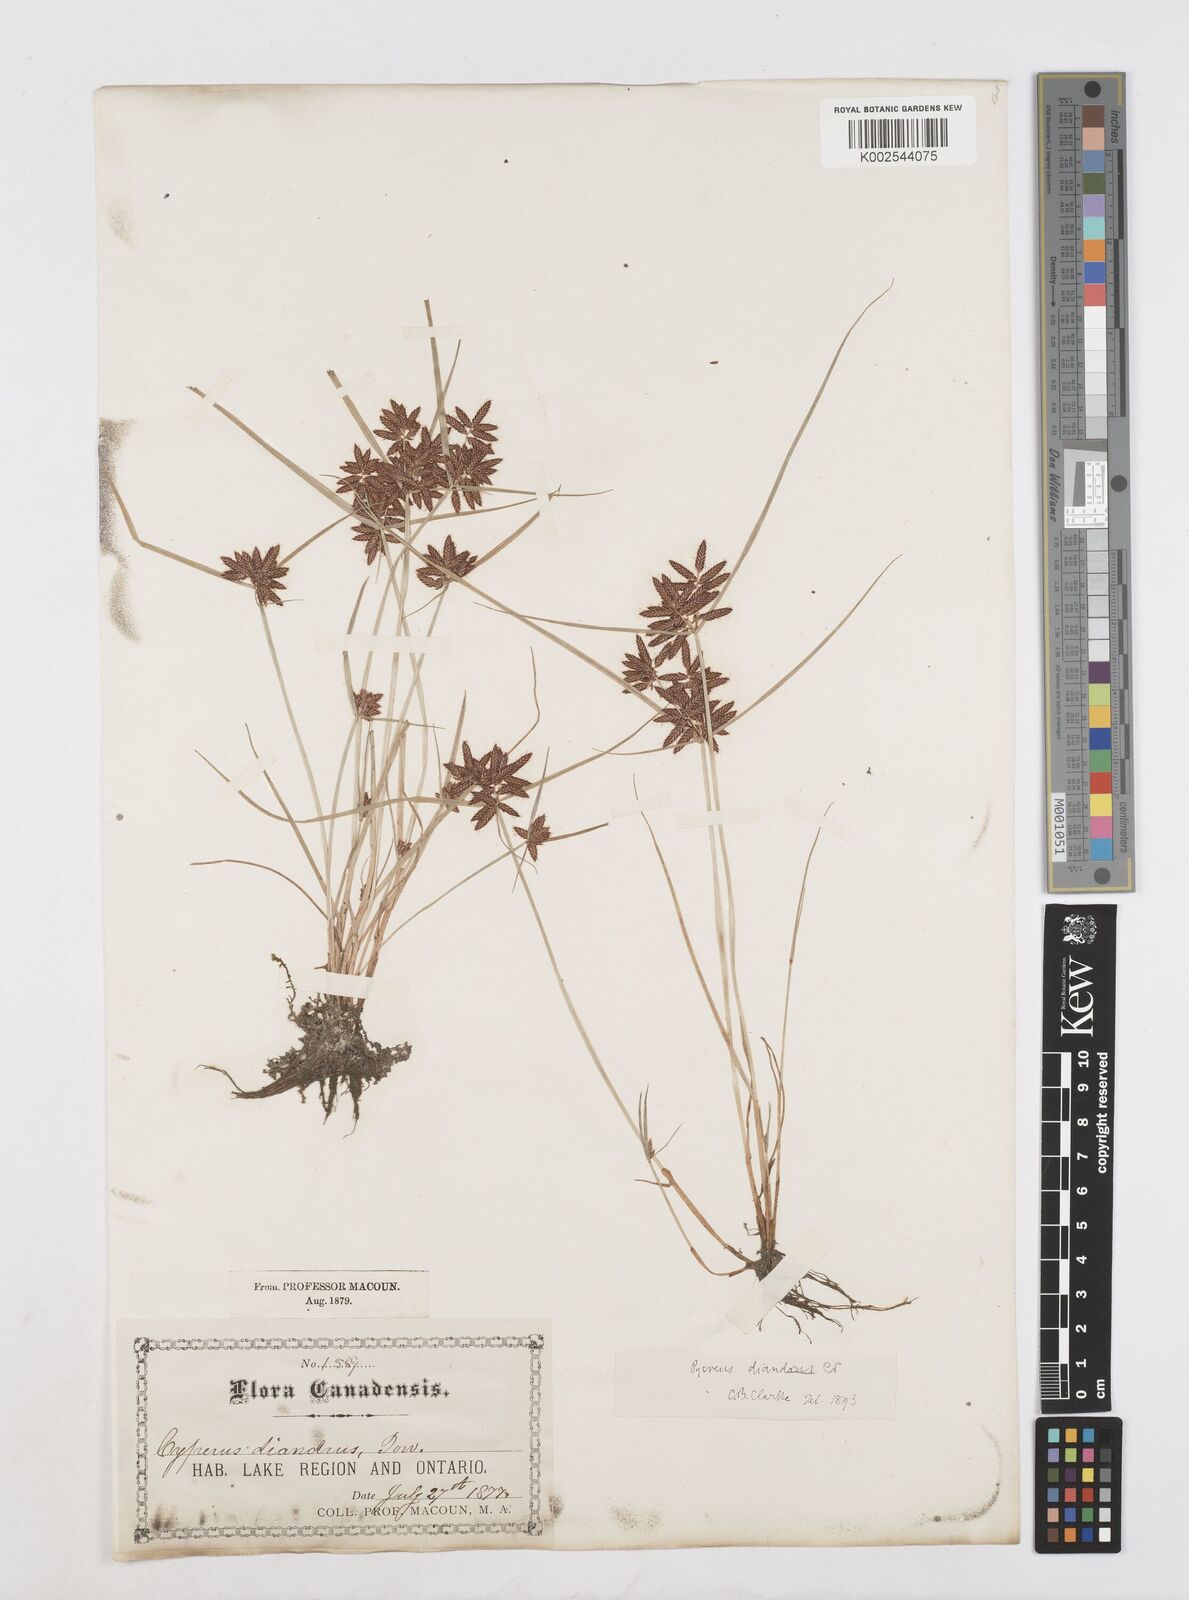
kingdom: Plantae
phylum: Tracheophyta
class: Liliopsida
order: Poales
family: Cyperaceae
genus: Cyperus
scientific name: Cyperus diandrus
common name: Low cyperus
